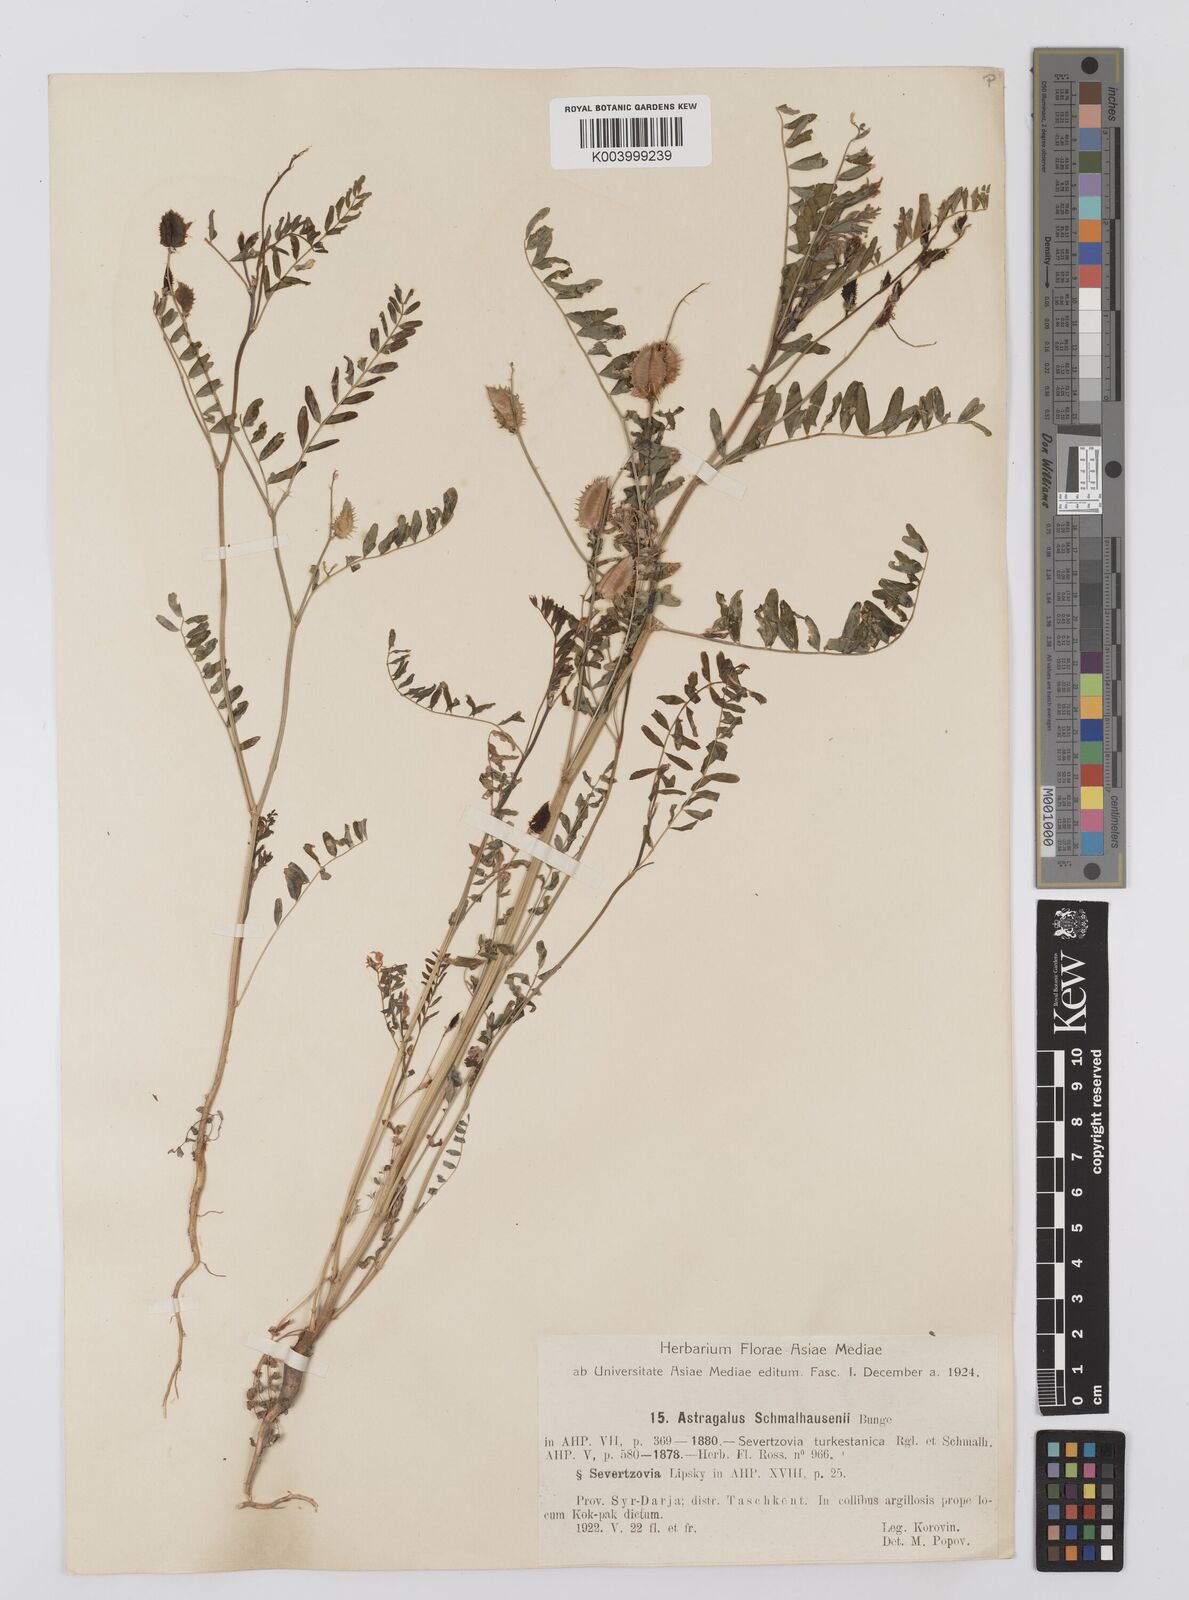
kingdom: Plantae
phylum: Tracheophyta
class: Magnoliopsida
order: Fabales
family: Fabaceae
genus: Astragalus
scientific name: Astragalus schmalhausenii
